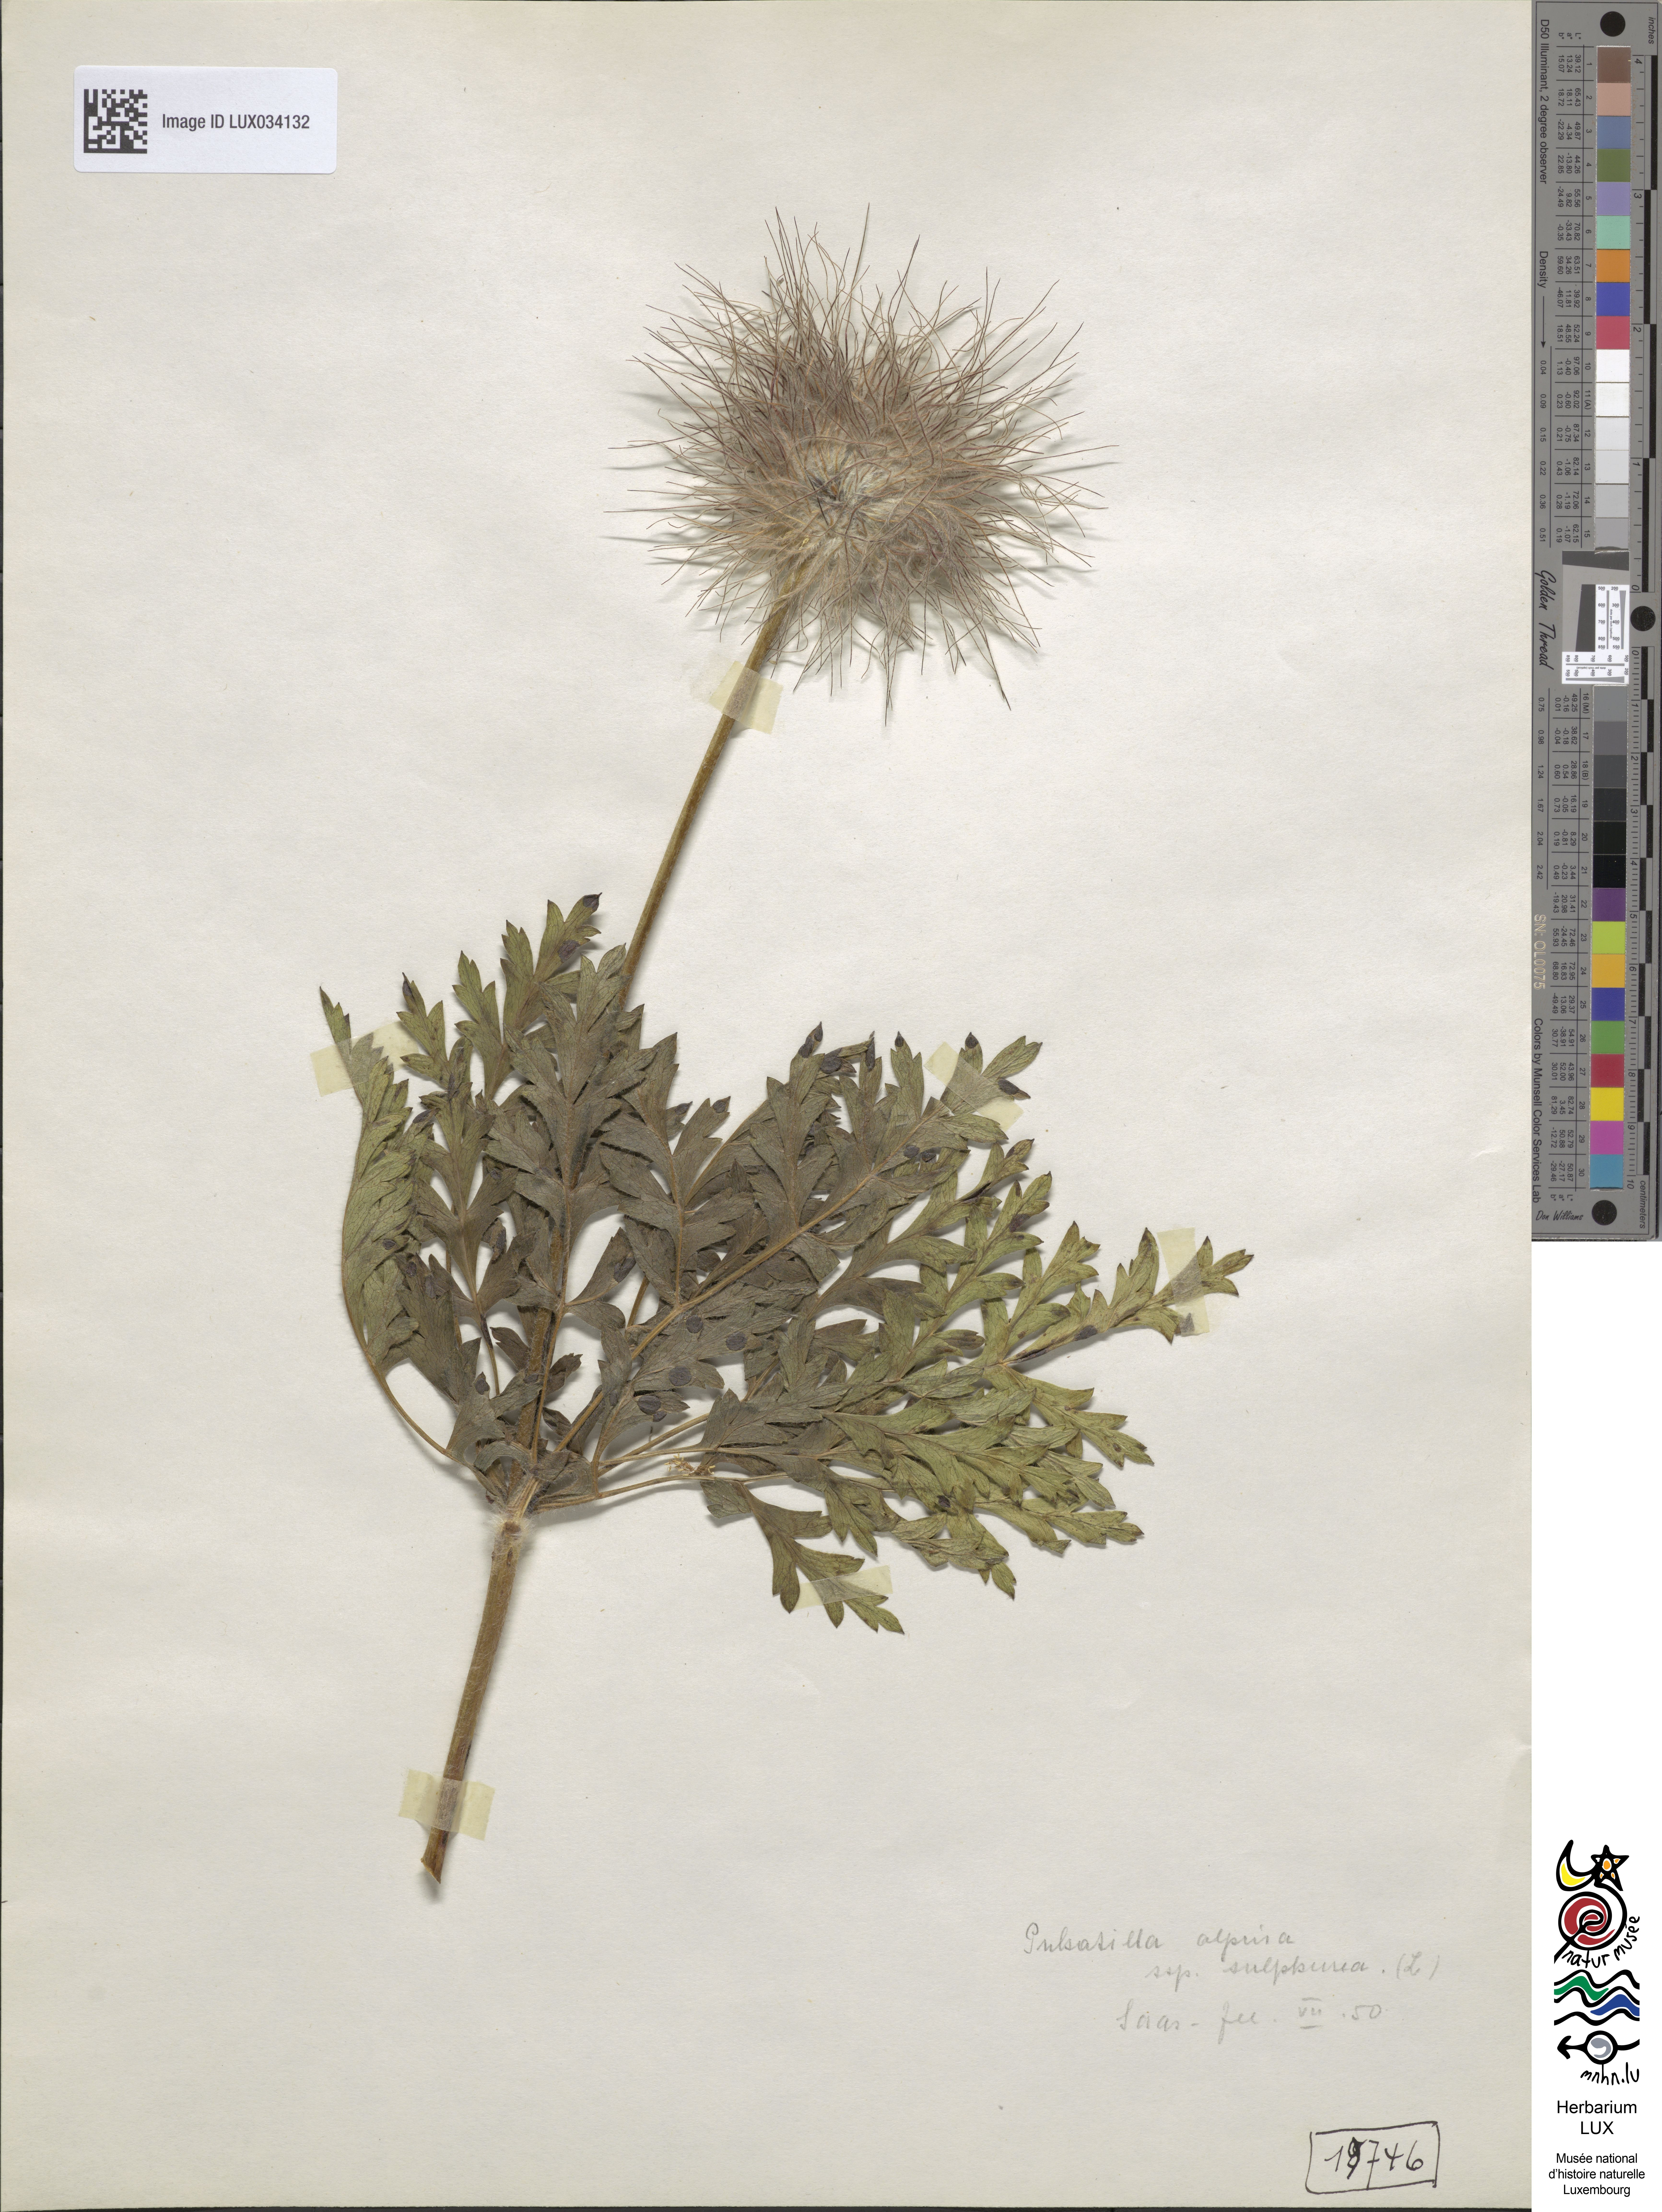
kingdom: Plantae
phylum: Tracheophyta
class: Magnoliopsida
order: Ranunculales
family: Ranunculaceae
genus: Pulsatilla
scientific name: Pulsatilla alpina
